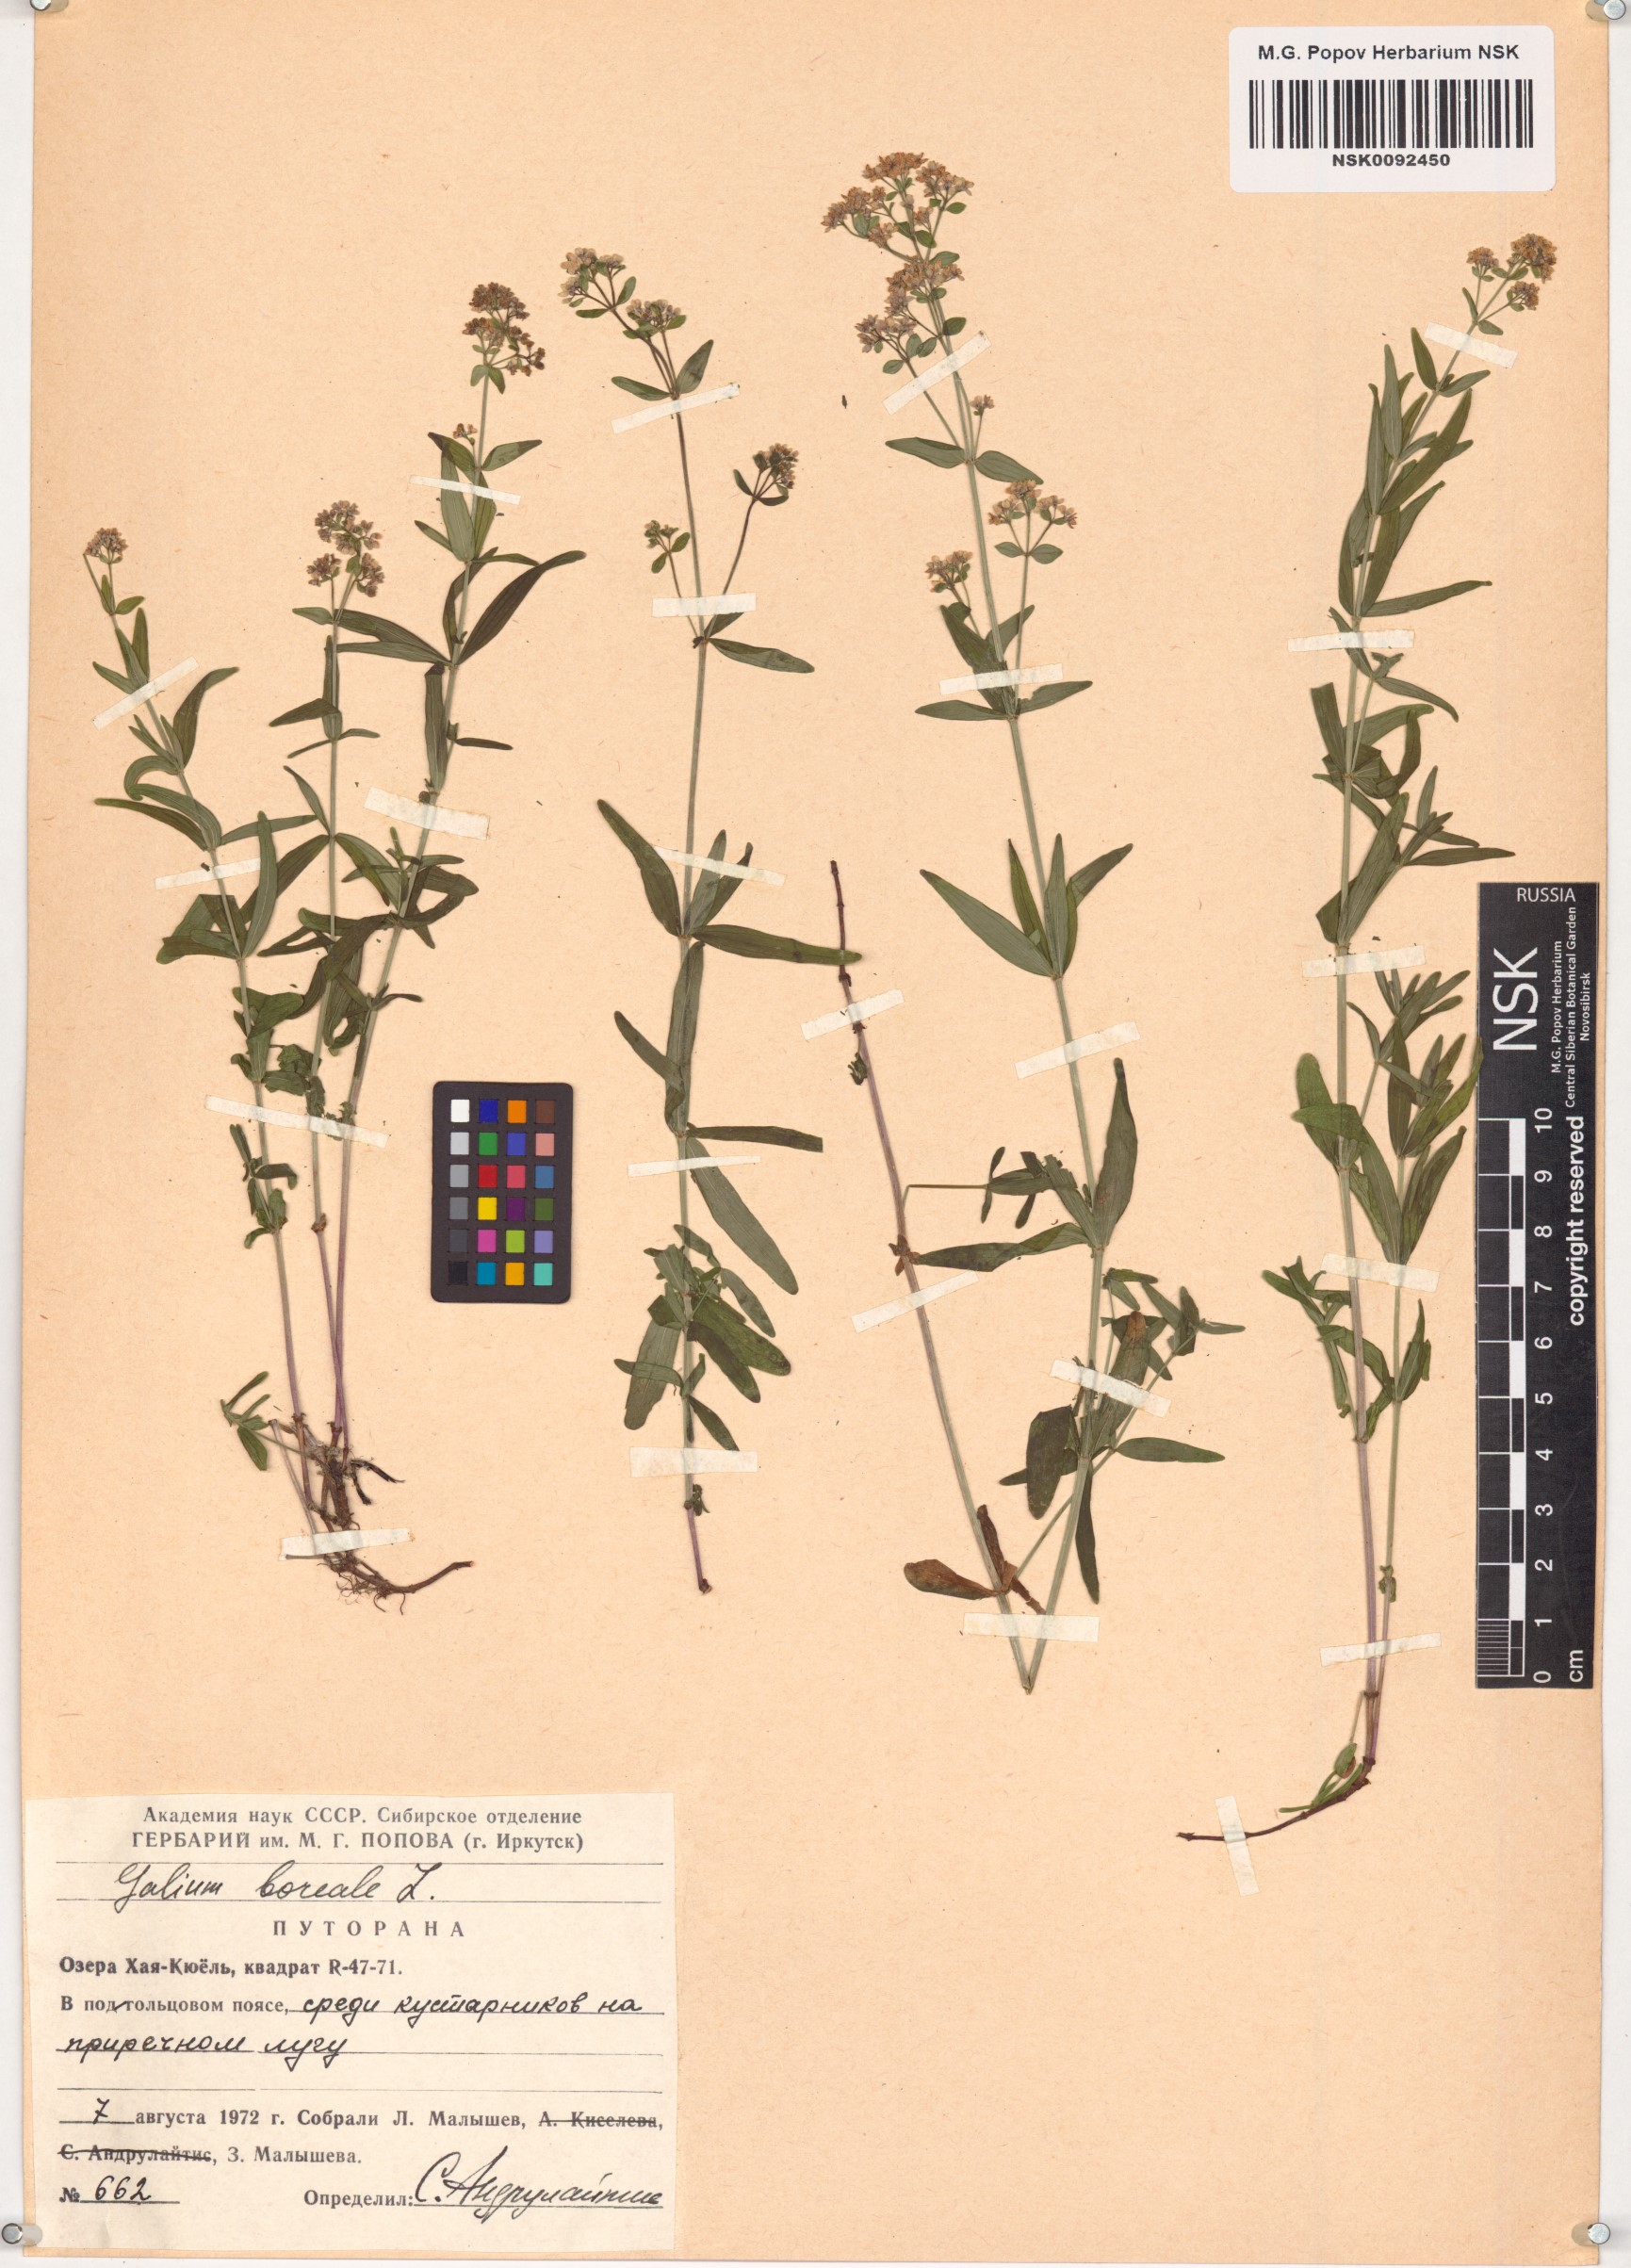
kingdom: Plantae
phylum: Tracheophyta
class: Magnoliopsida
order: Gentianales
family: Rubiaceae
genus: Galium
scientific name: Galium boreale
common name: Northern bedstraw
